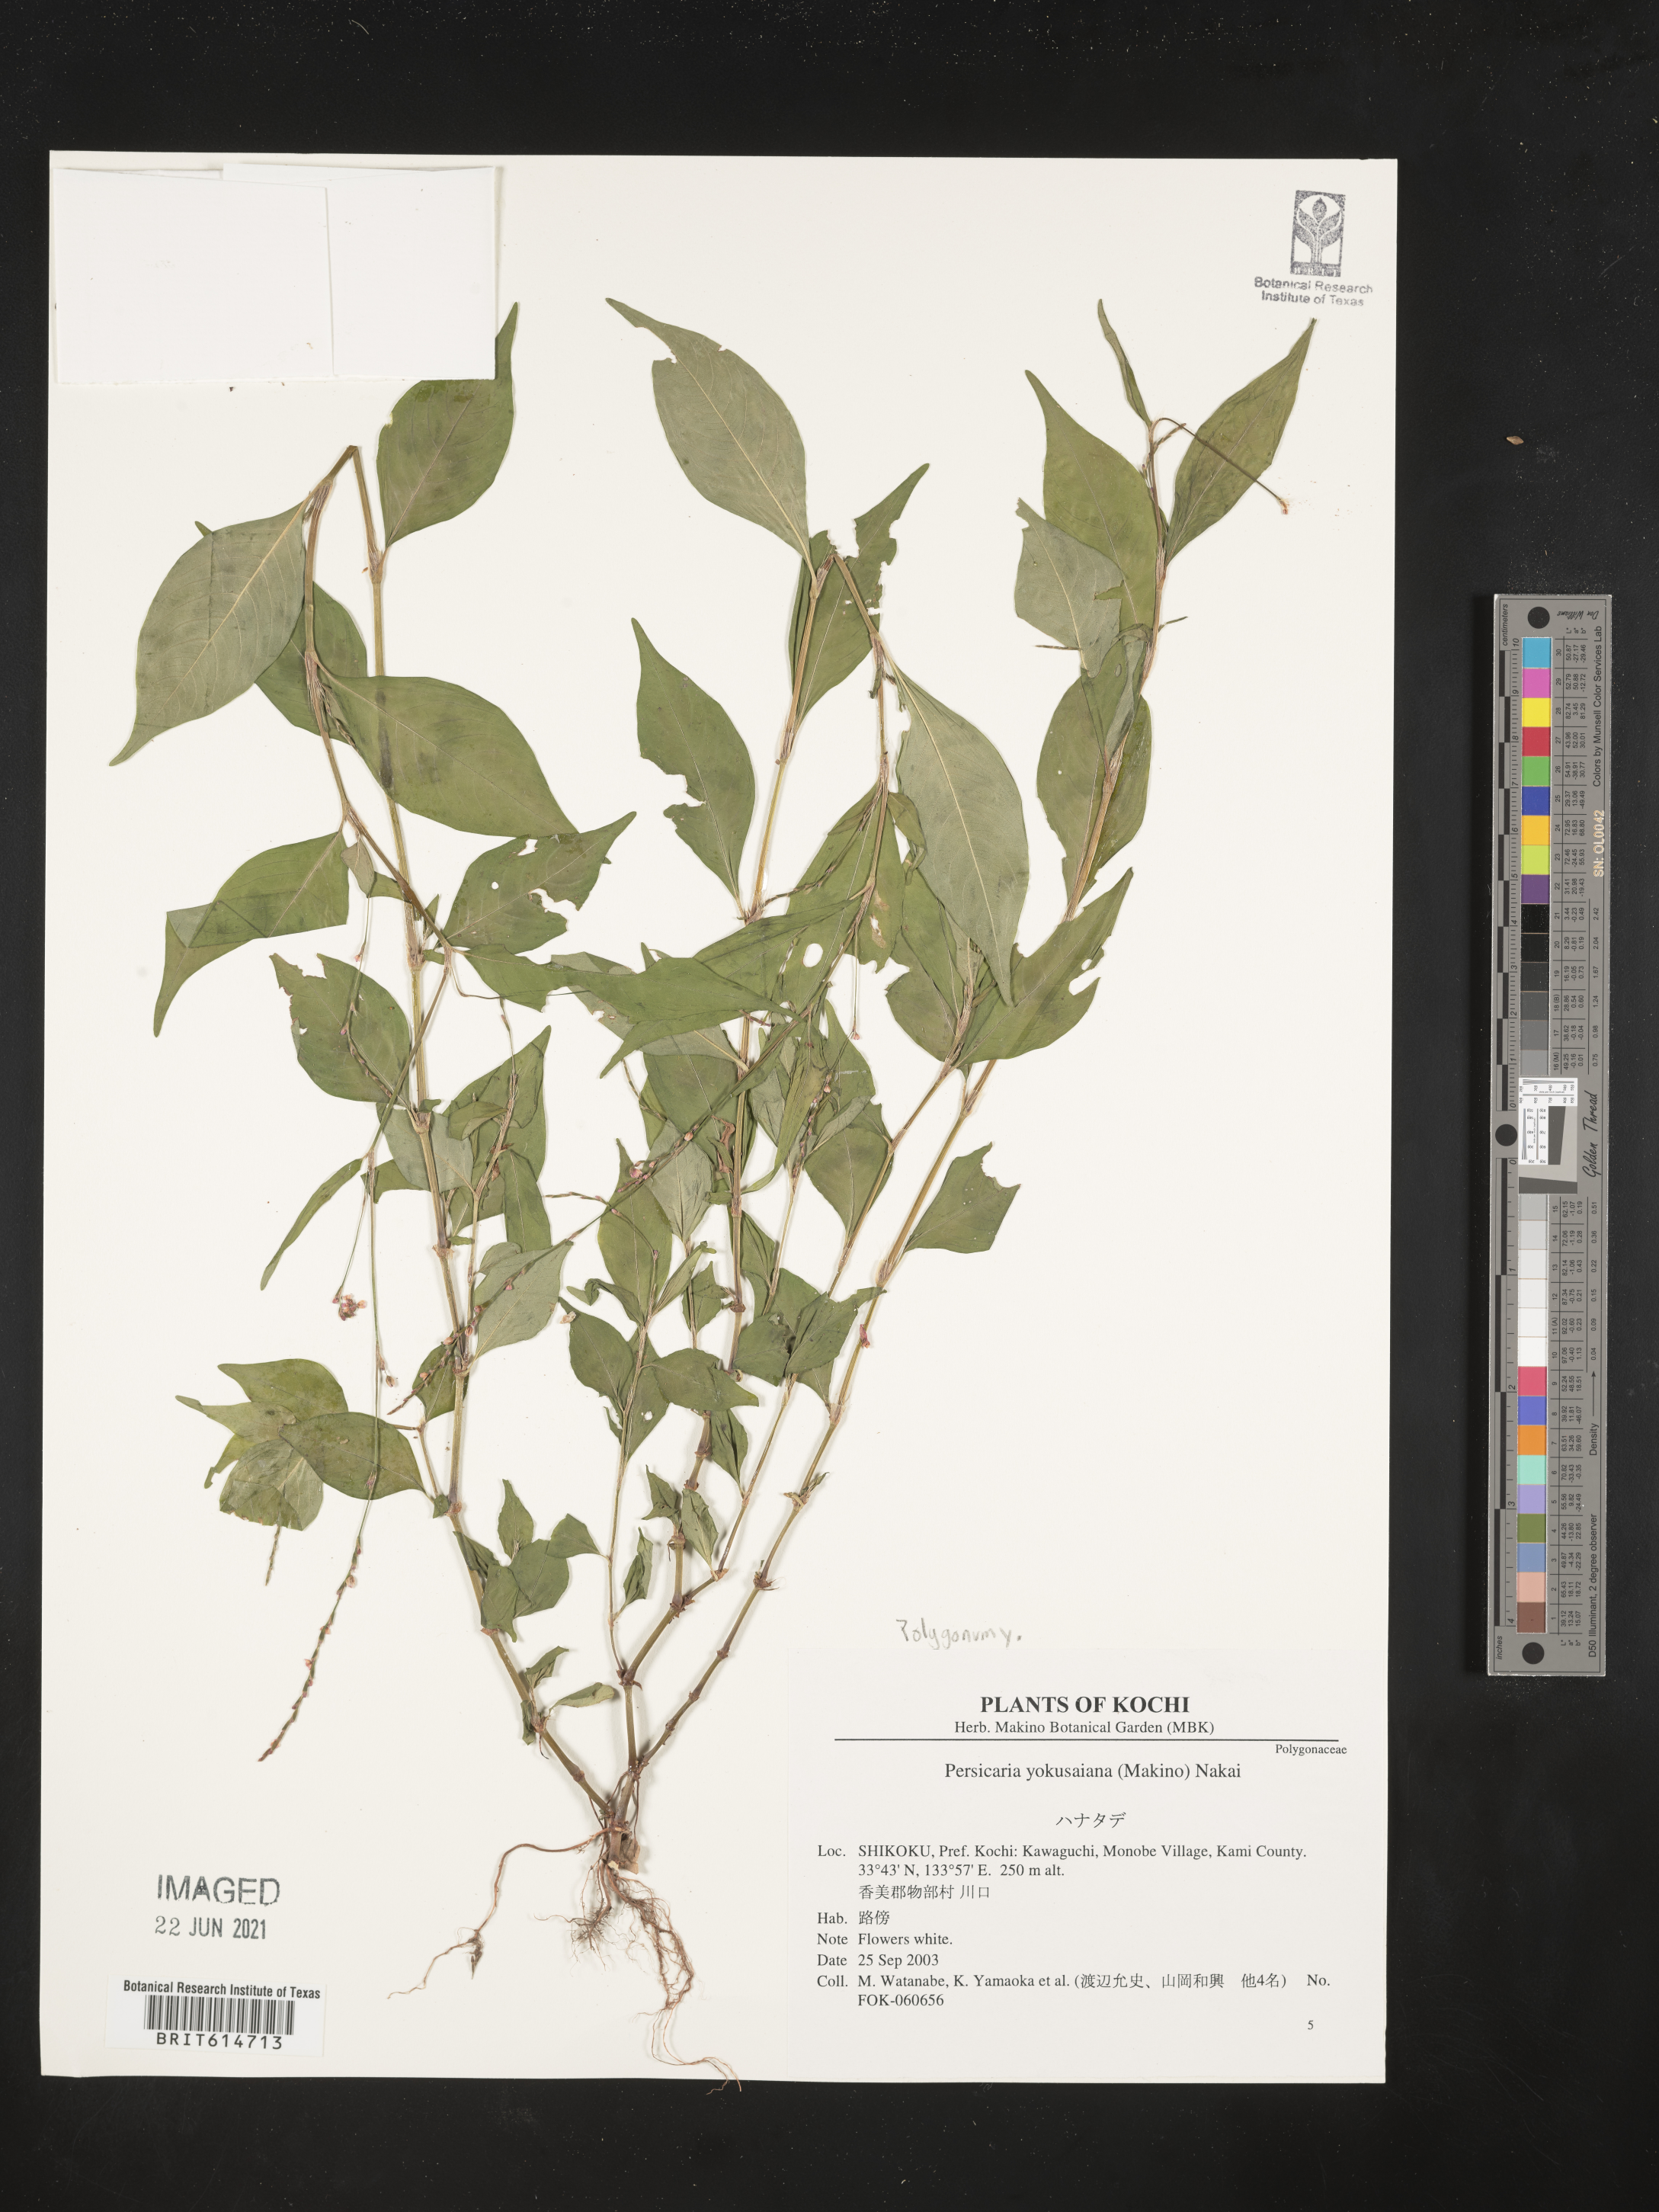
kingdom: Plantae
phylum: Tracheophyta
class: Magnoliopsida
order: Caryophyllales
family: Polygonaceae
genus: Persicaria
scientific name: Persicaria posumbu
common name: Oriental lady's thumb
